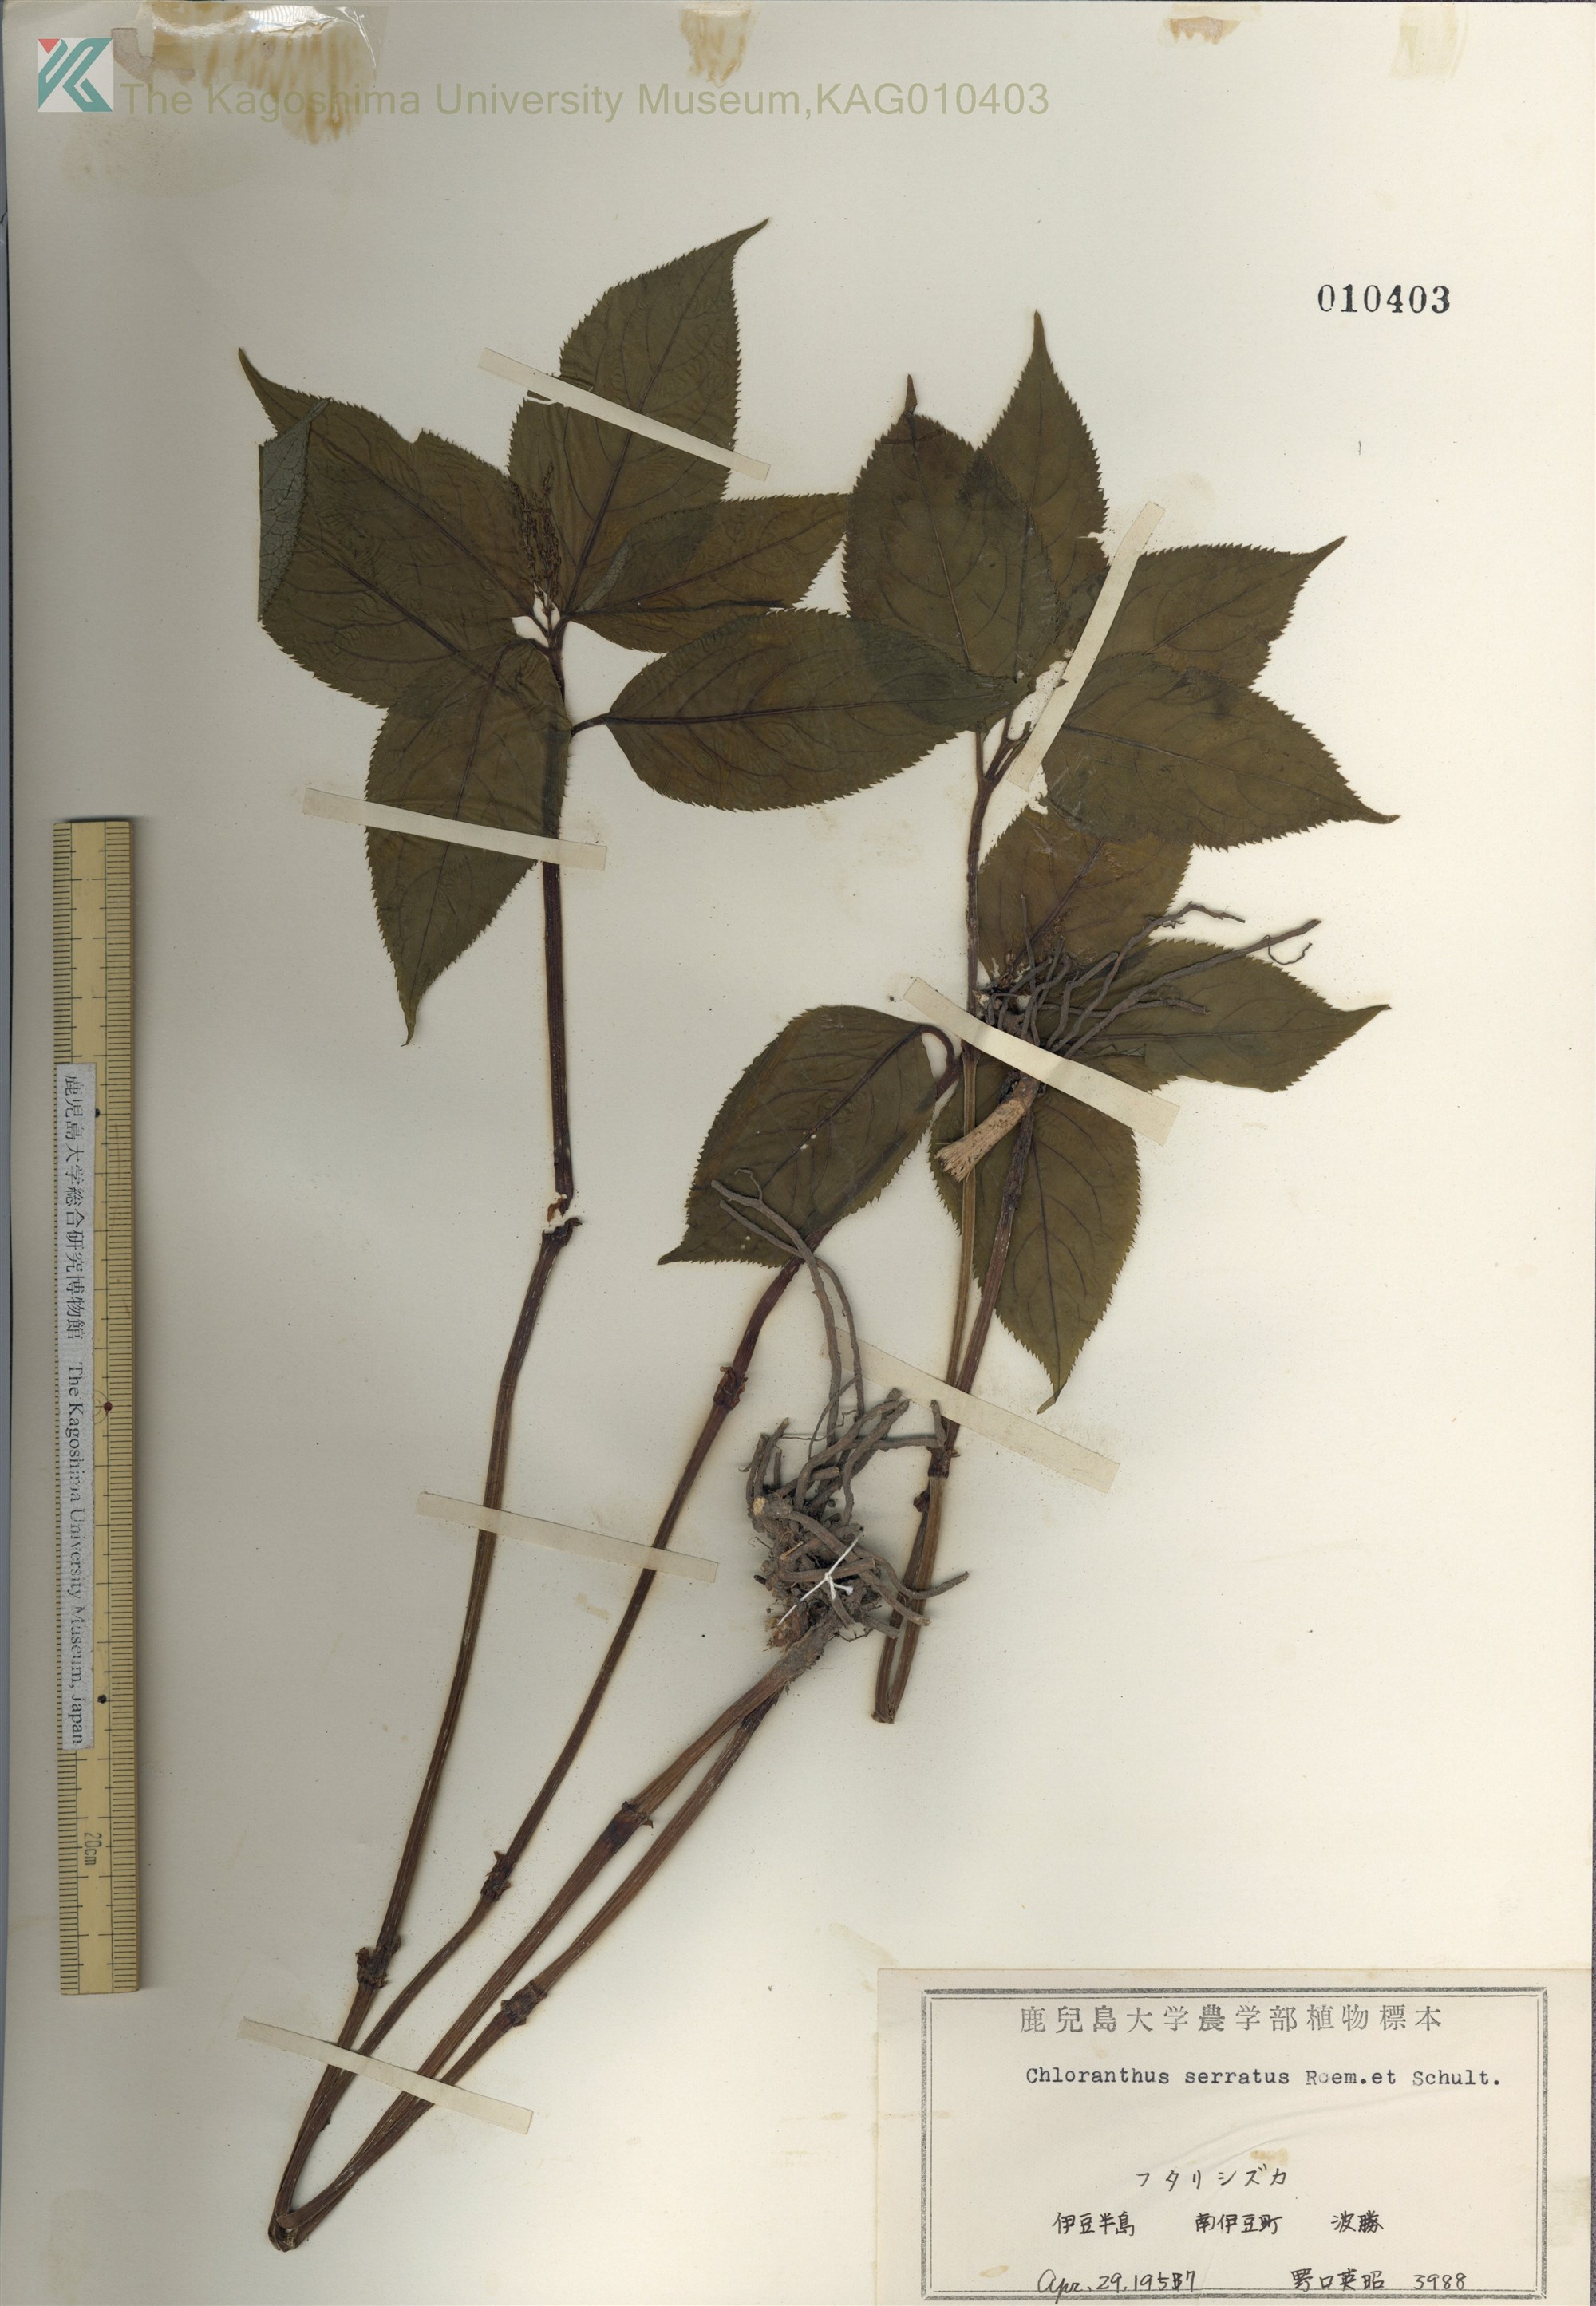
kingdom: Plantae
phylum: Tracheophyta
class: Magnoliopsida
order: Chloranthales
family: Chloranthaceae
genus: Chloranthus
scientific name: Chloranthus serratus
